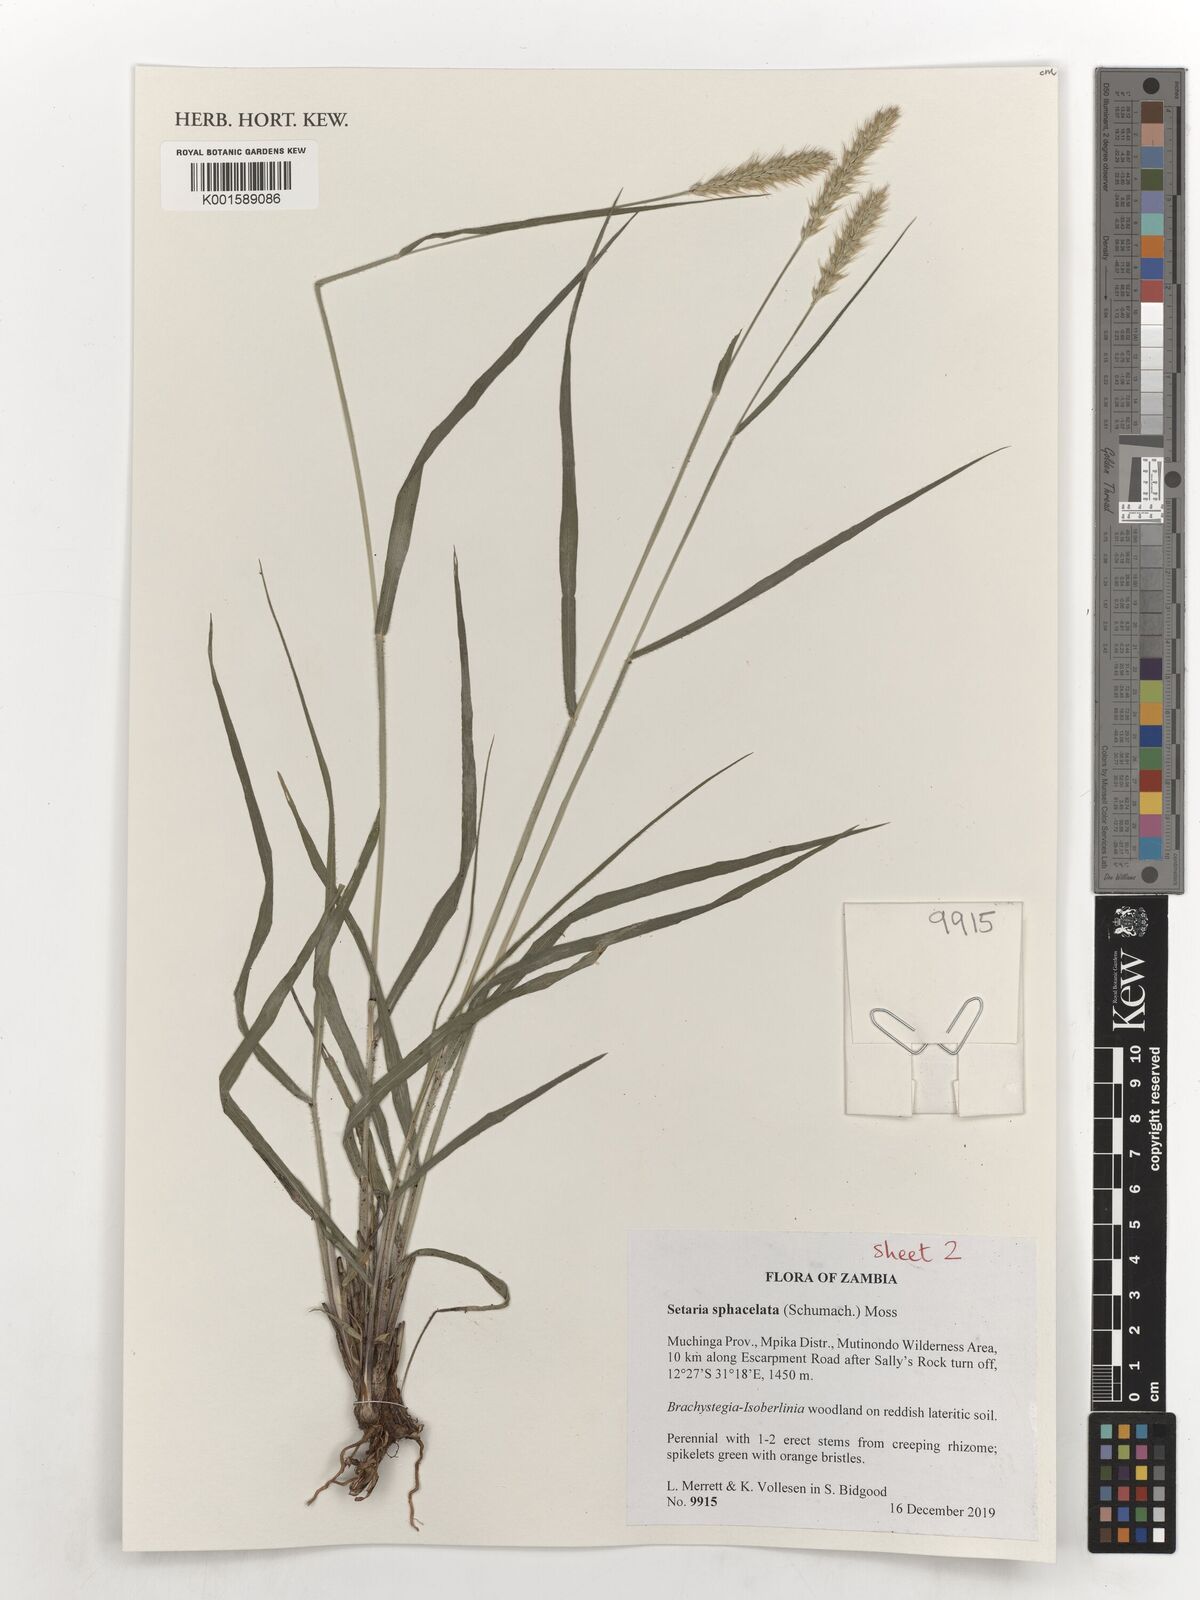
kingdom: Plantae
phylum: Tracheophyta
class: Liliopsida
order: Poales
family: Poaceae
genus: Setaria
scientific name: Setaria sphacelata
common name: African bristlegrass
